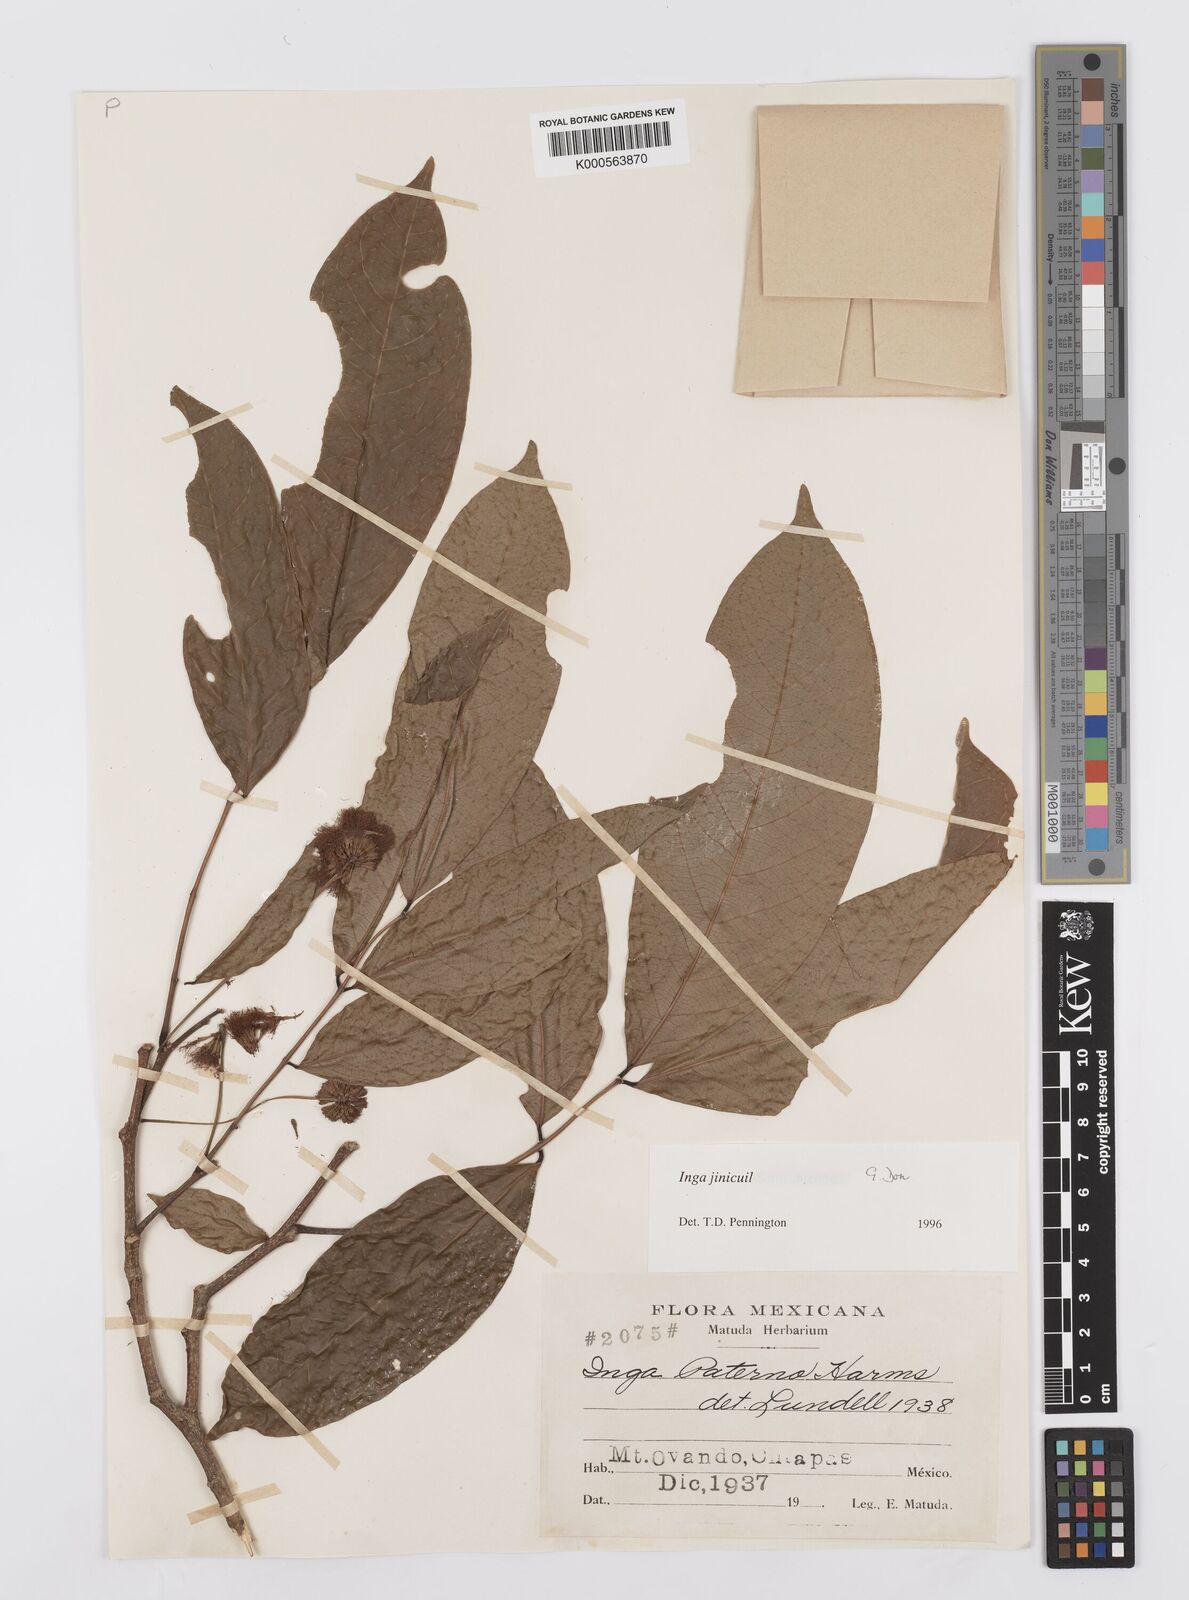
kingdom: Plantae
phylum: Tracheophyta
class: Magnoliopsida
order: Fabales
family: Fabaceae
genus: Inga
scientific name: Inga inicuil
